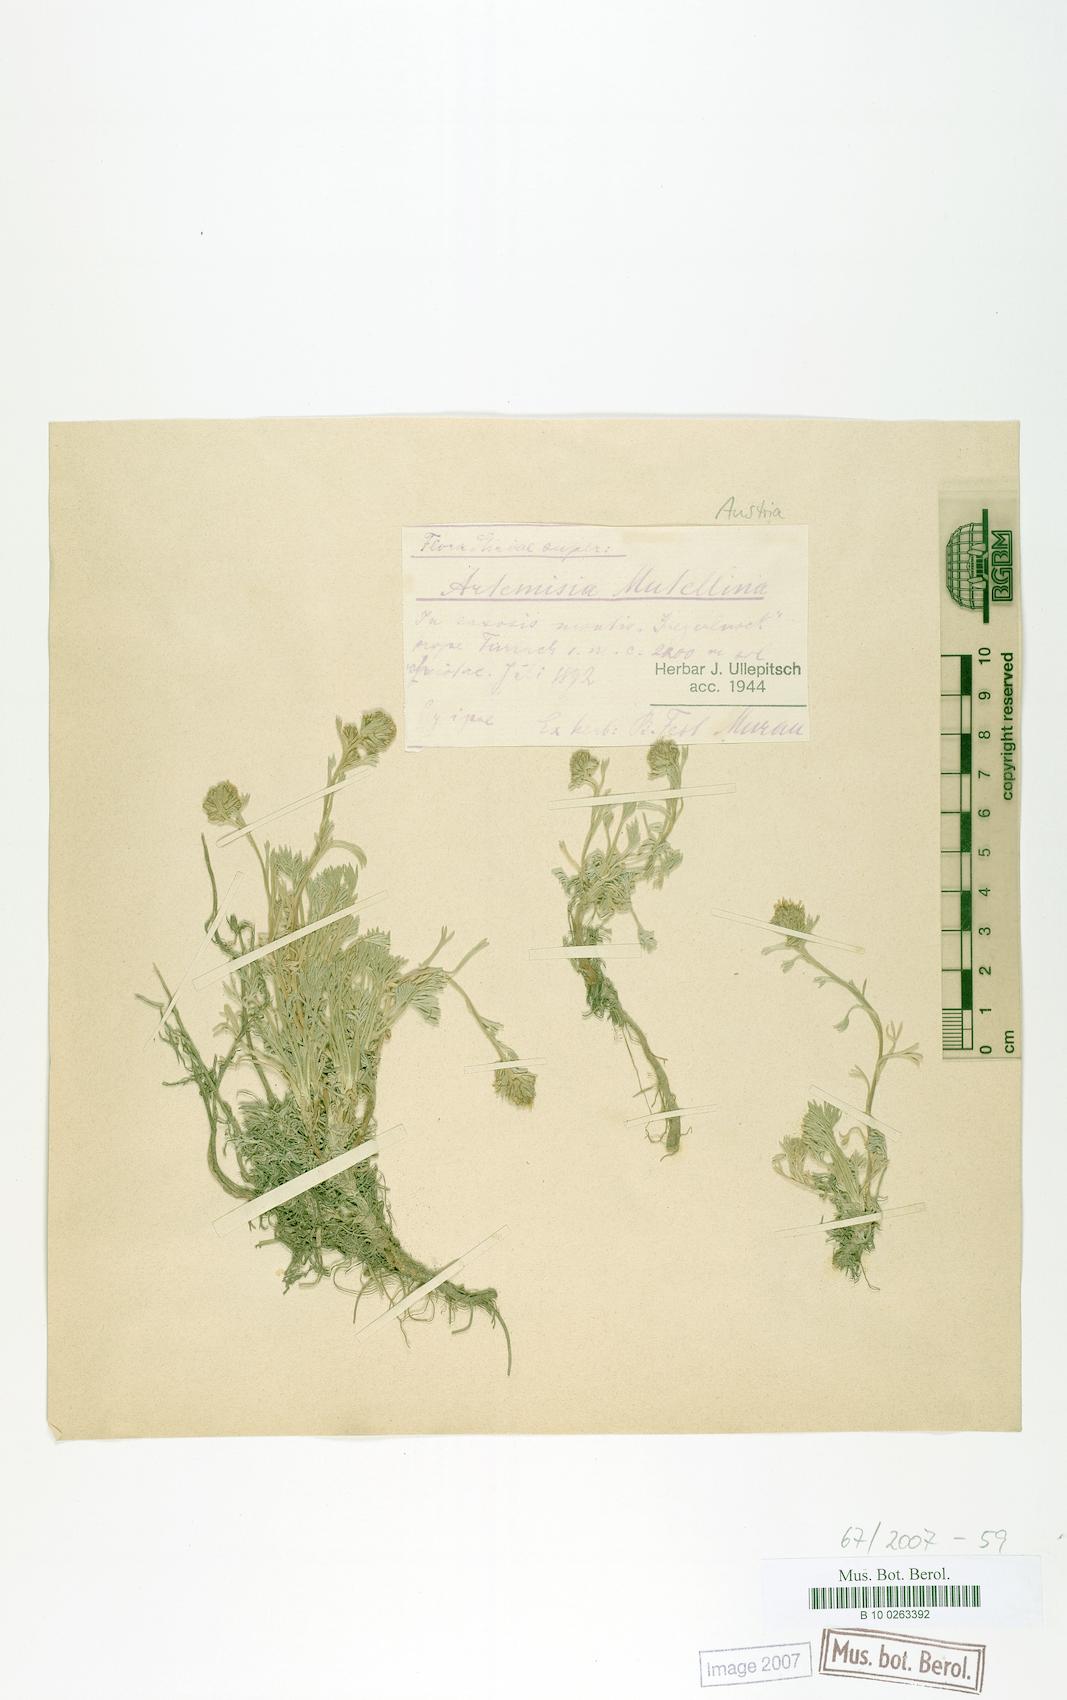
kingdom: Plantae
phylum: Tracheophyta
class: Magnoliopsida
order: Asterales
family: Asteraceae
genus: Artemisia
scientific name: Artemisia mutellina
